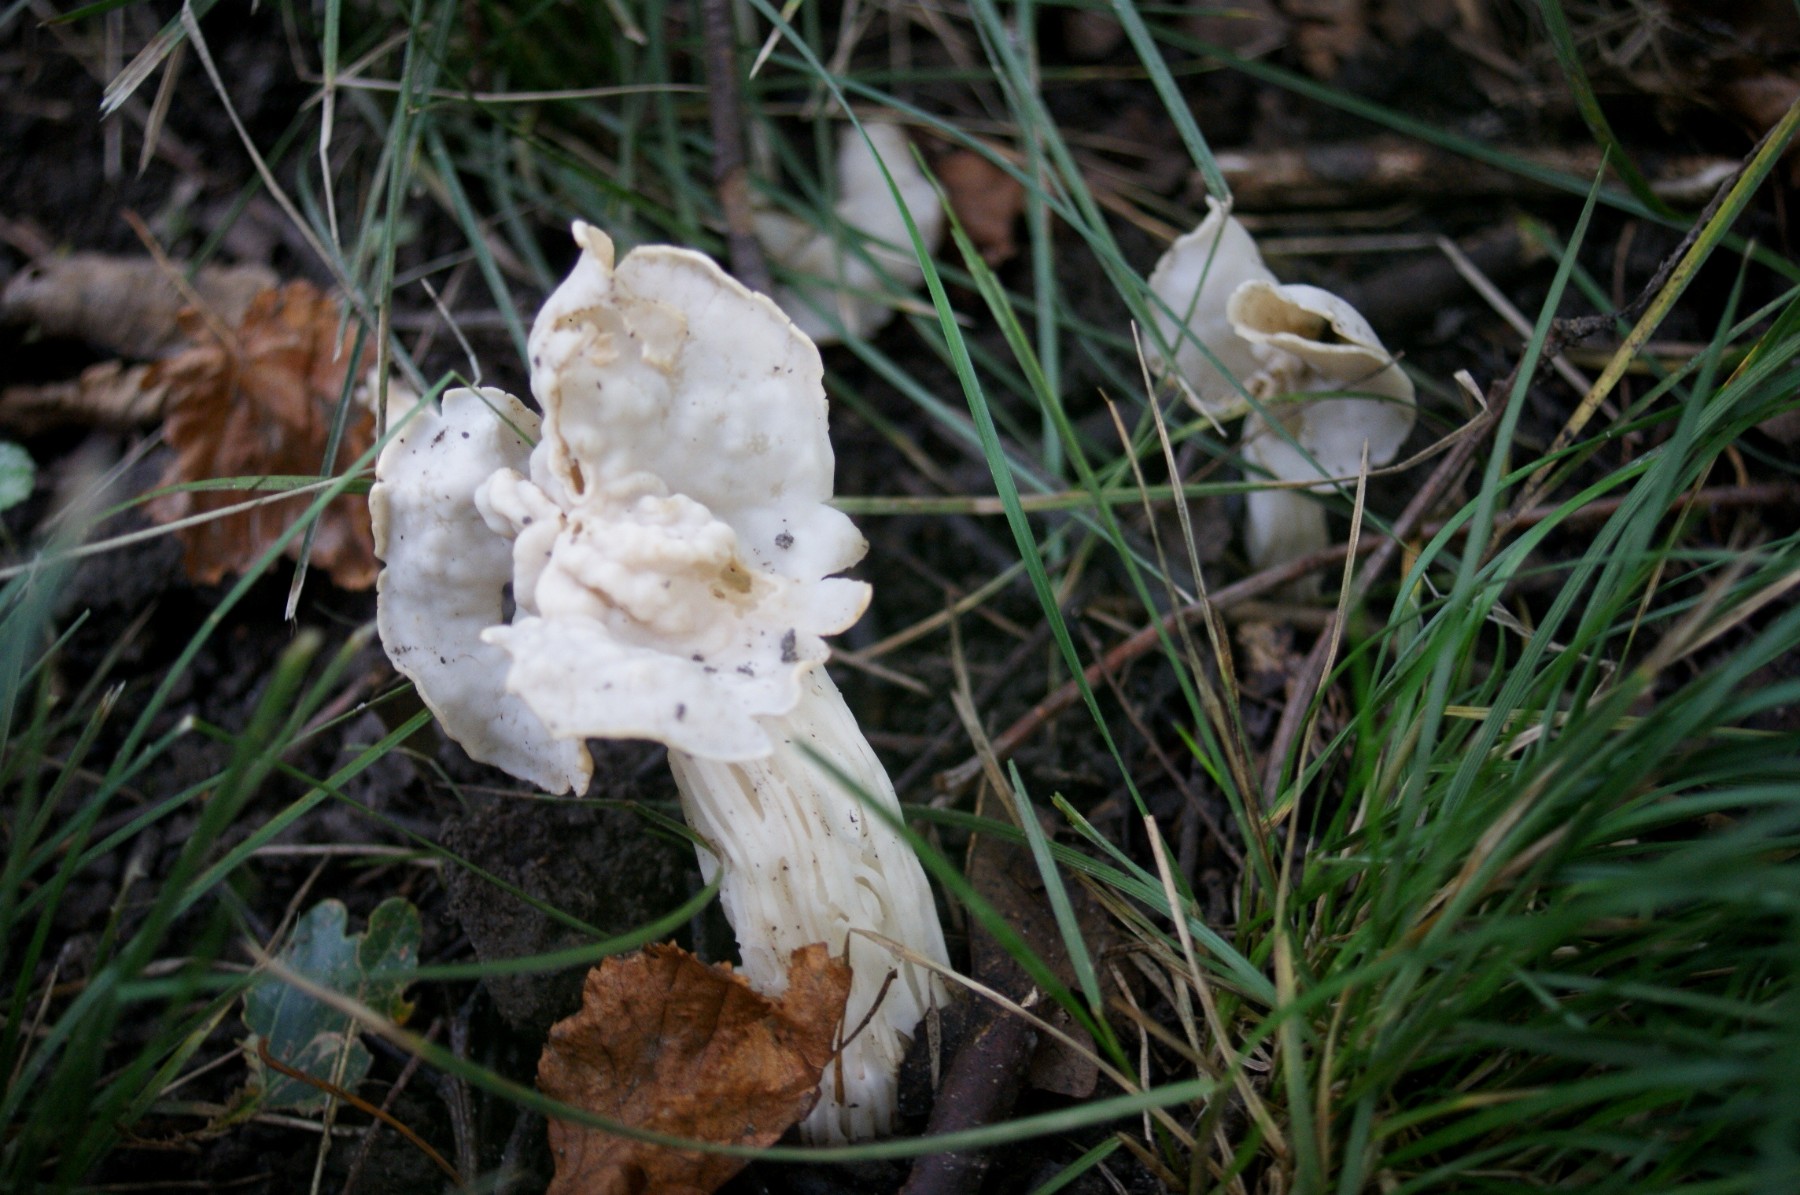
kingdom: Fungi
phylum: Ascomycota
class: Pezizomycetes
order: Pezizales
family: Helvellaceae
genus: Helvella
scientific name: Helvella crispa
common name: kruset foldhat
